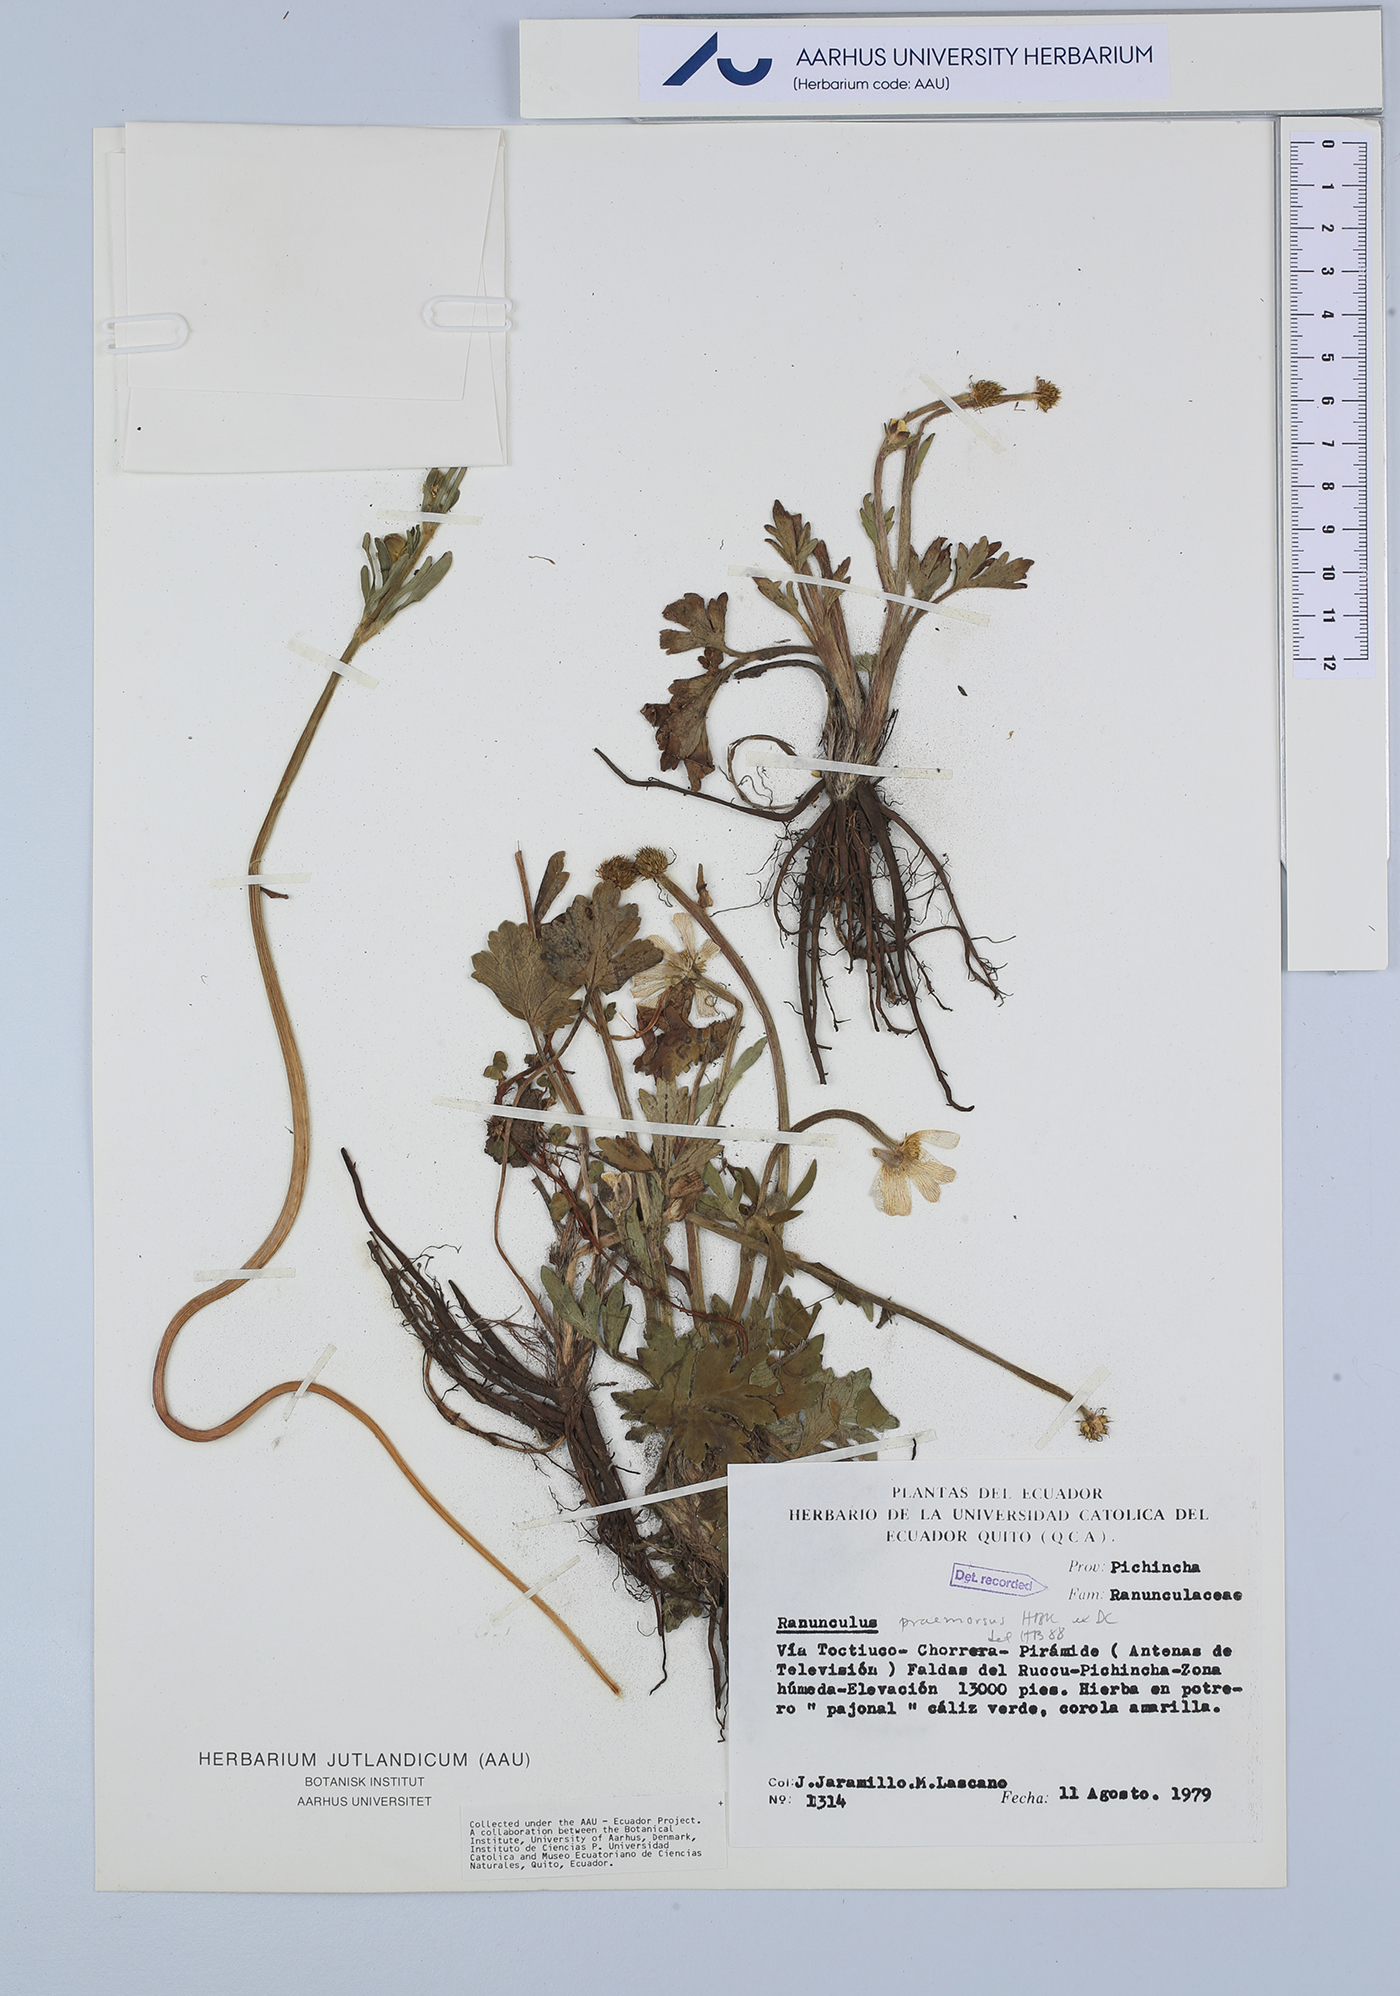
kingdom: Plantae
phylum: Tracheophyta
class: Magnoliopsida
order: Ranunculales
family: Ranunculaceae
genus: Ranunculus
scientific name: Ranunculus praemorsus
